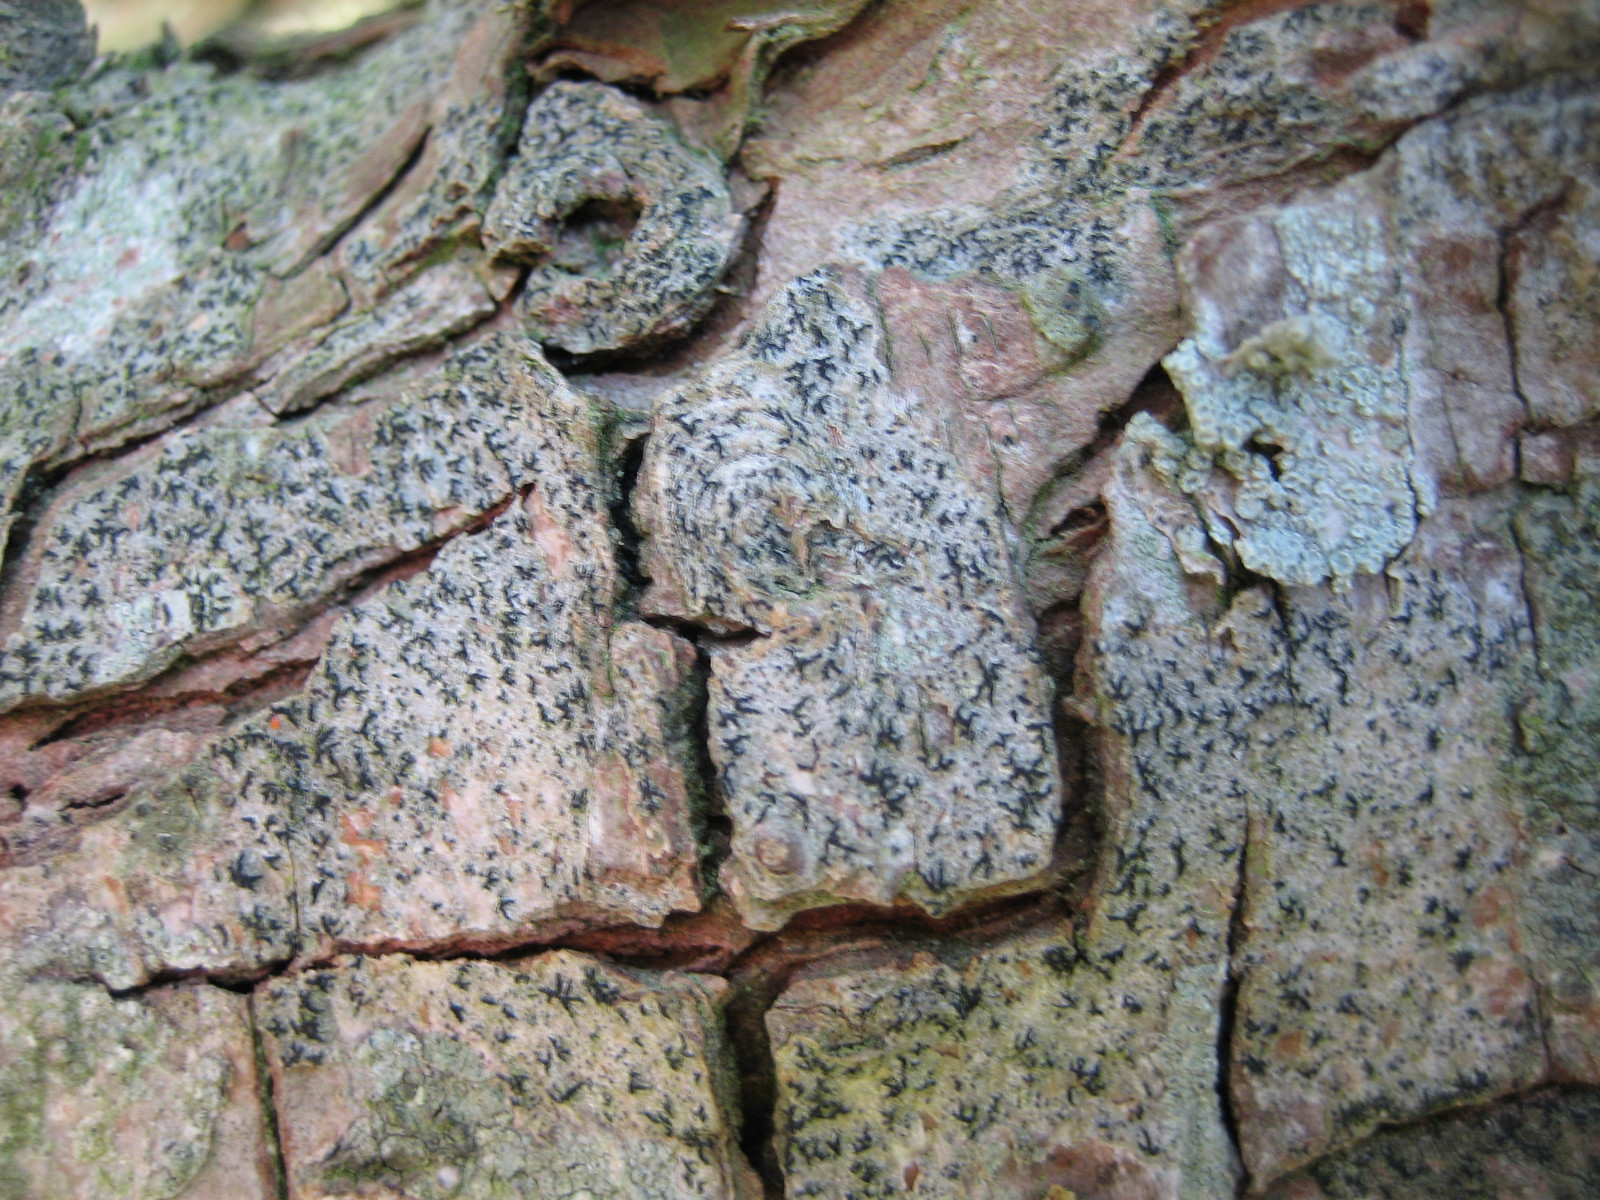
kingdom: Fungi
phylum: Ascomycota
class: Arthoniomycetes
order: Arthoniales
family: Opegraphaceae
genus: Opegrapha
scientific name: Opegrapha niveoatra
